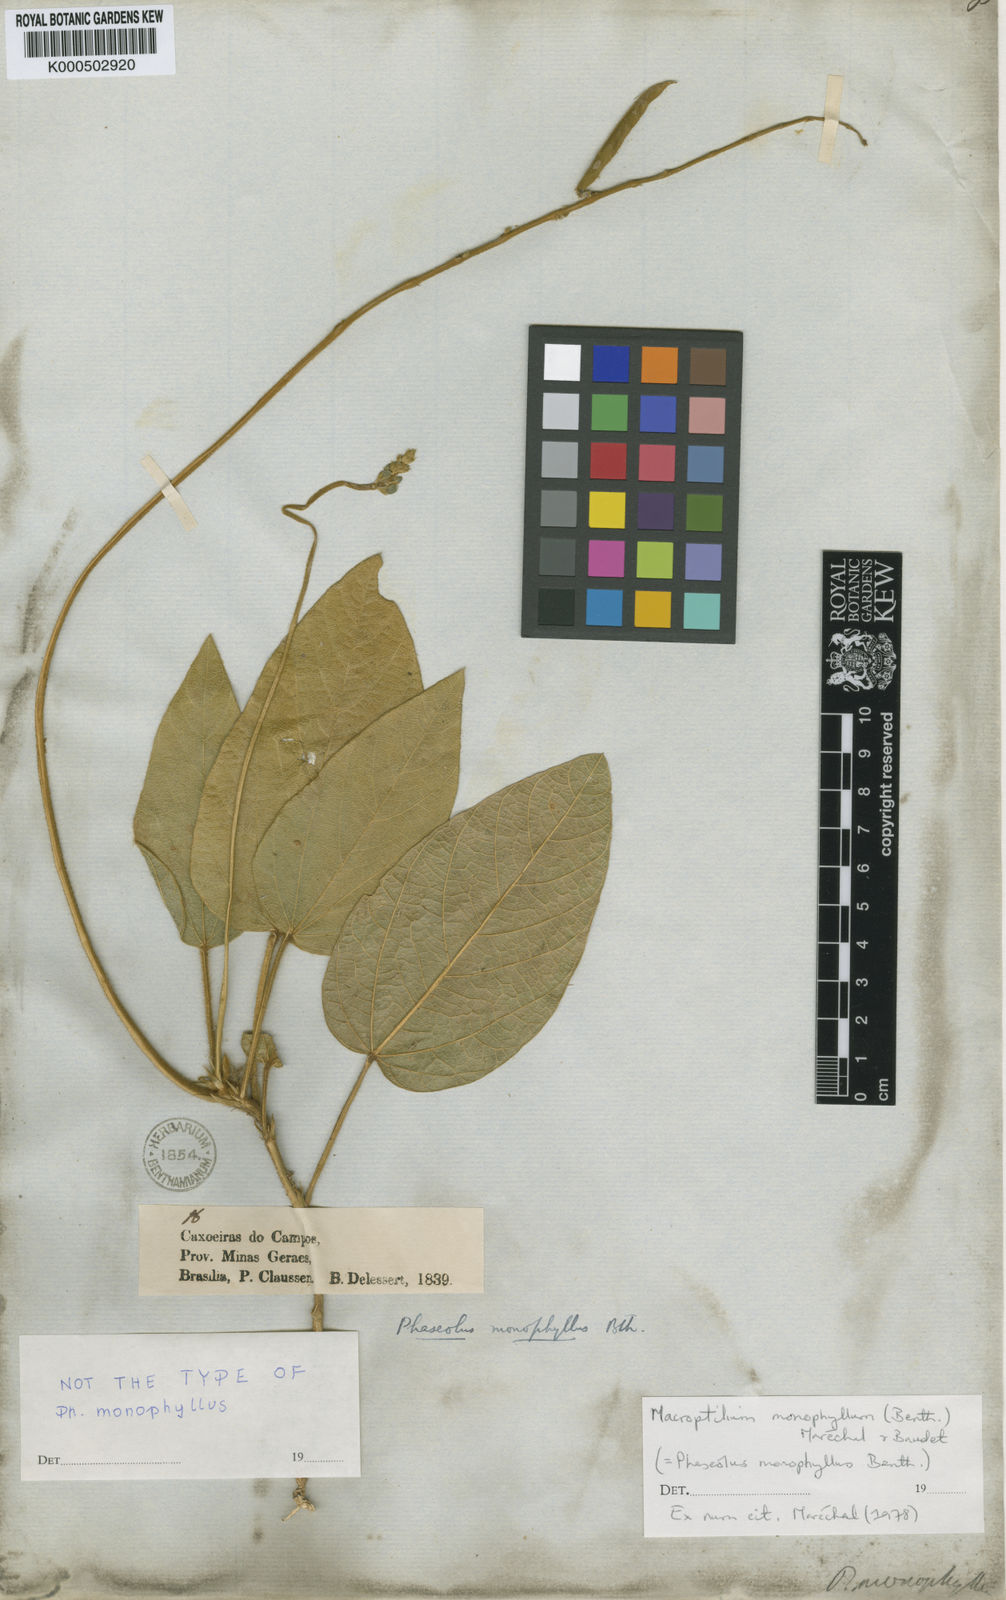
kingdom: Plantae
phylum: Tracheophyta
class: Magnoliopsida
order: Fabales
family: Fabaceae
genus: Macroptilium
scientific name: Macroptilium
